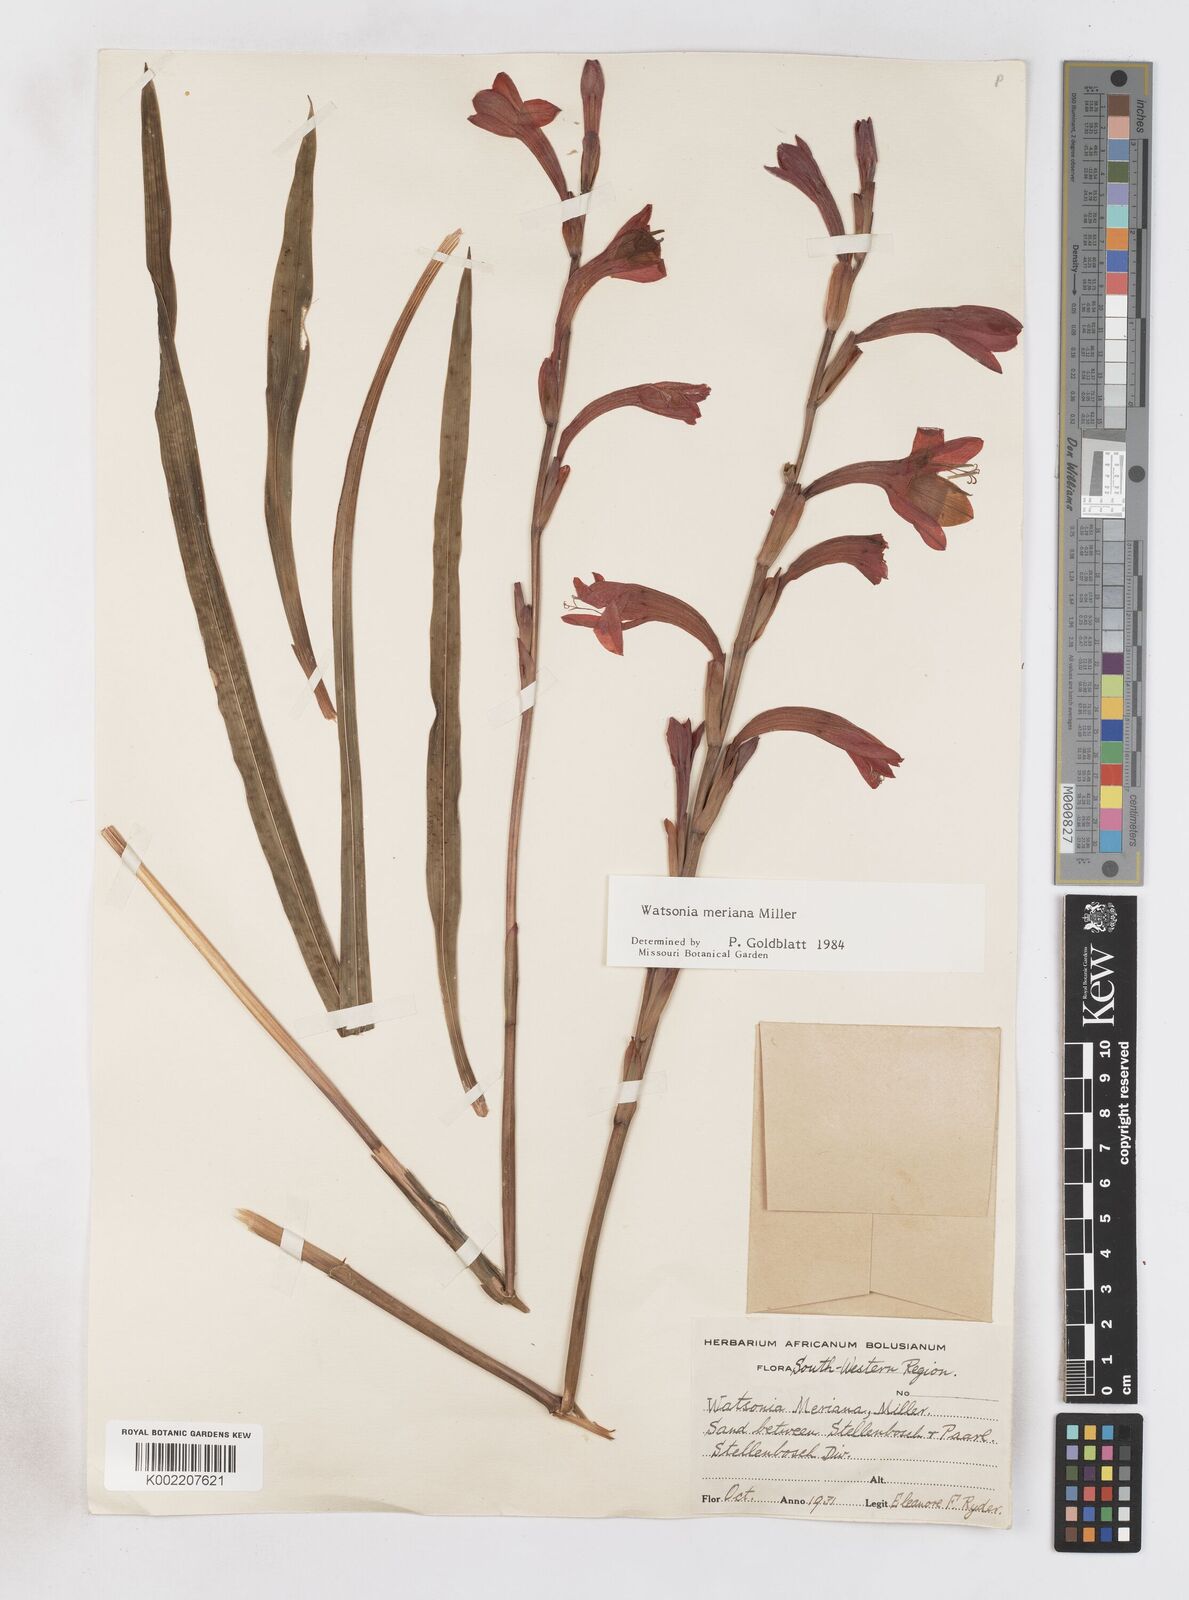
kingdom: Plantae
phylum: Tracheophyta
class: Liliopsida
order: Asparagales
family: Iridaceae
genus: Watsonia
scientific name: Watsonia meriana
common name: Bulbil bugle-lily
